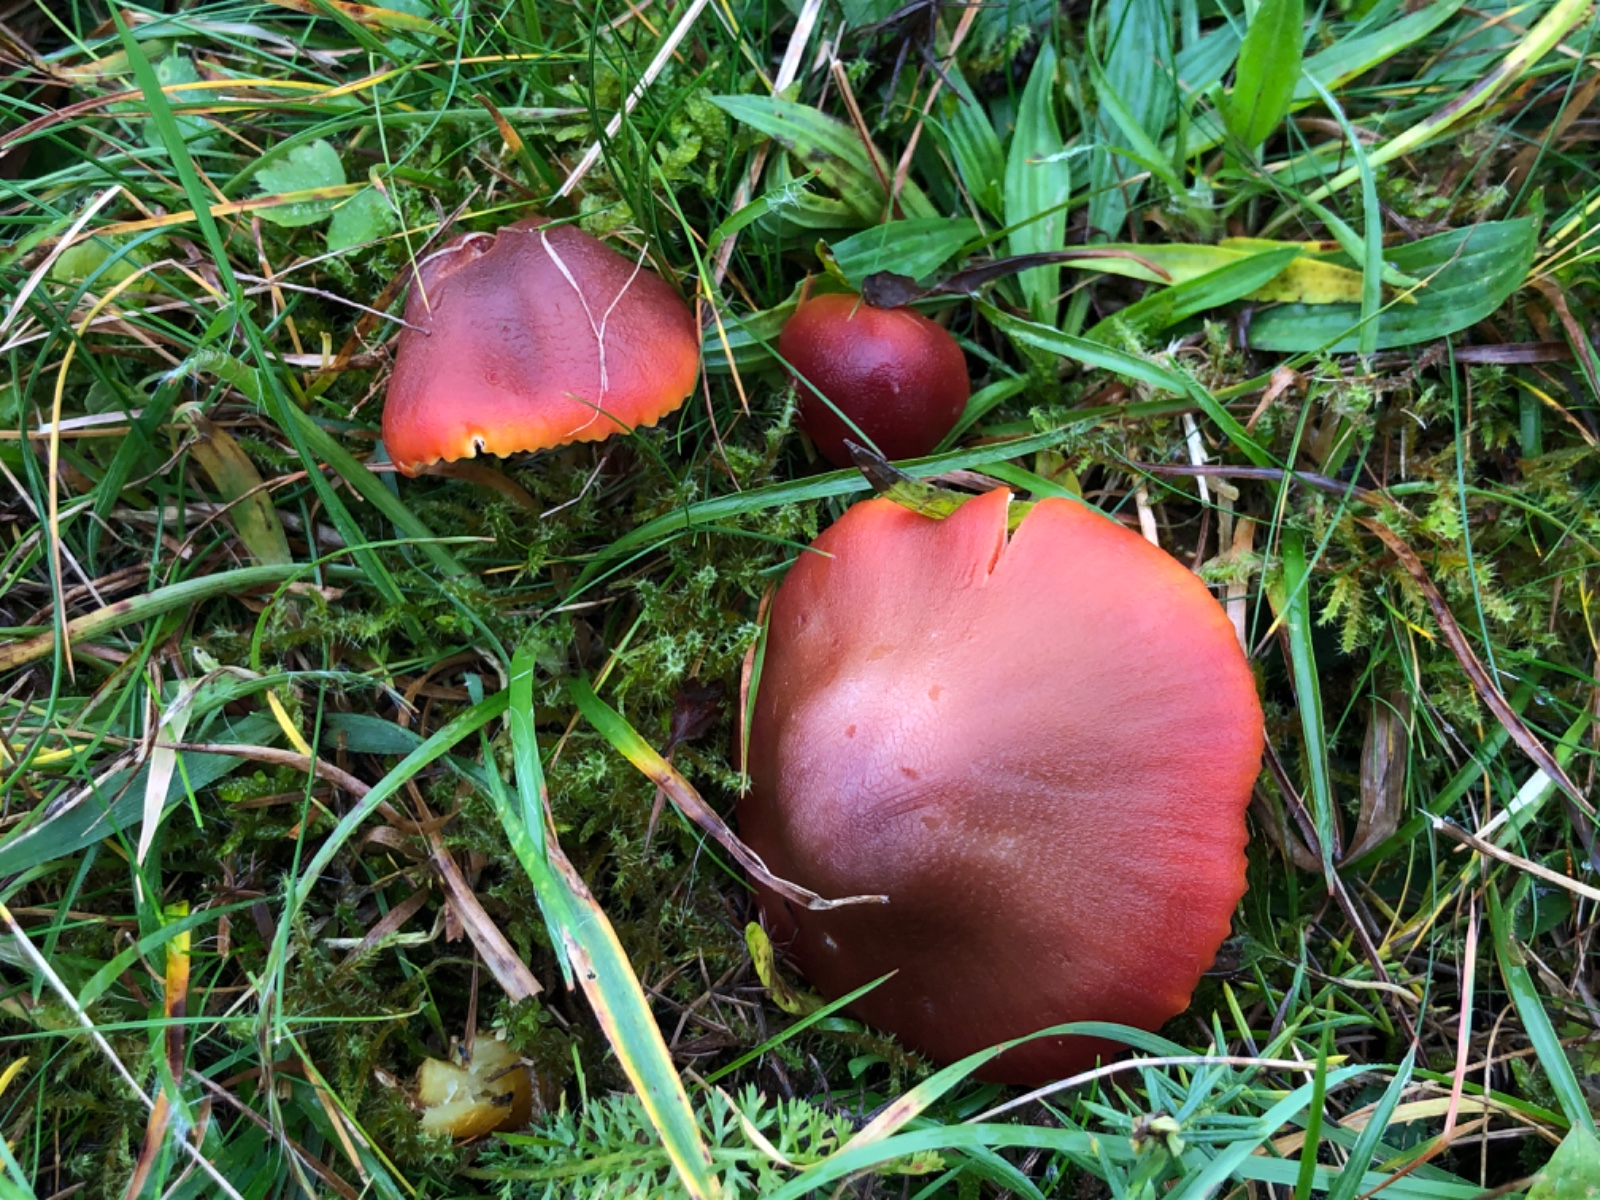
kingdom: Fungi
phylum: Basidiomycota
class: Agaricomycetes
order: Agaricales
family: Hygrophoraceae
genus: Hygrocybe
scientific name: Hygrocybe punicea
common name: skarlagen-vokshat
